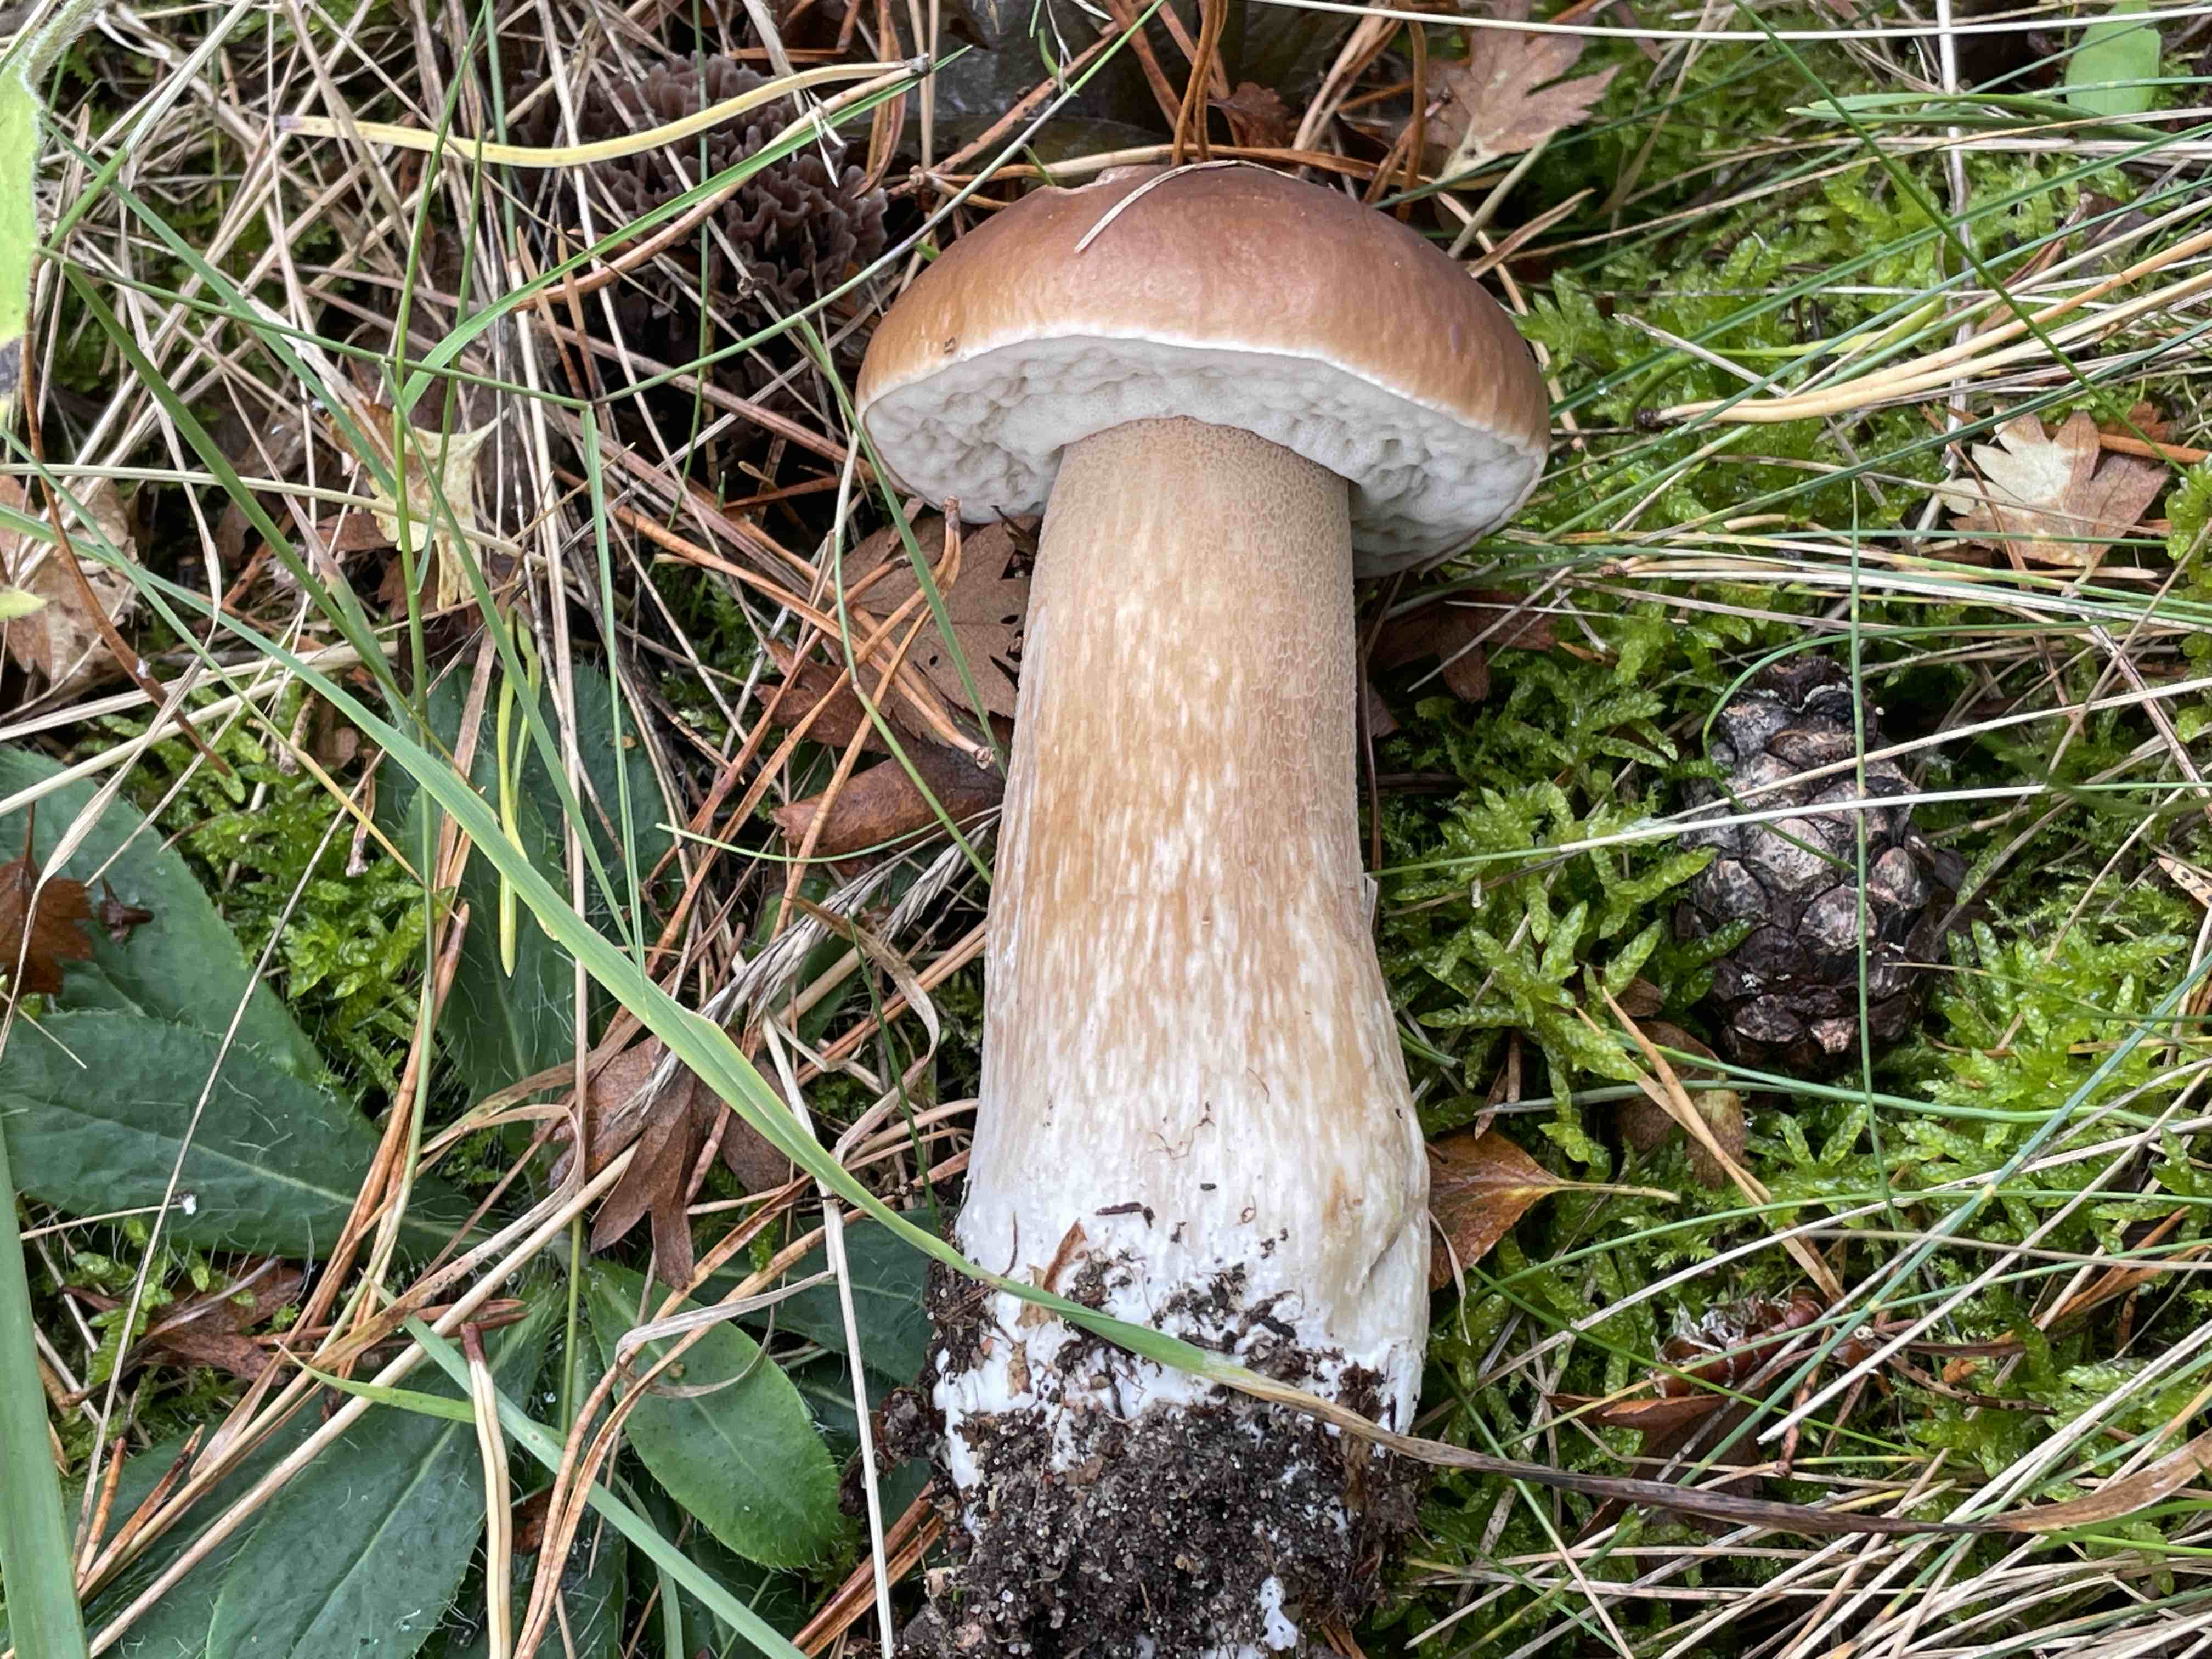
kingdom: Fungi
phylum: Basidiomycota
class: Agaricomycetes
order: Boletales
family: Boletaceae
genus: Boletus
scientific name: Boletus edulis
